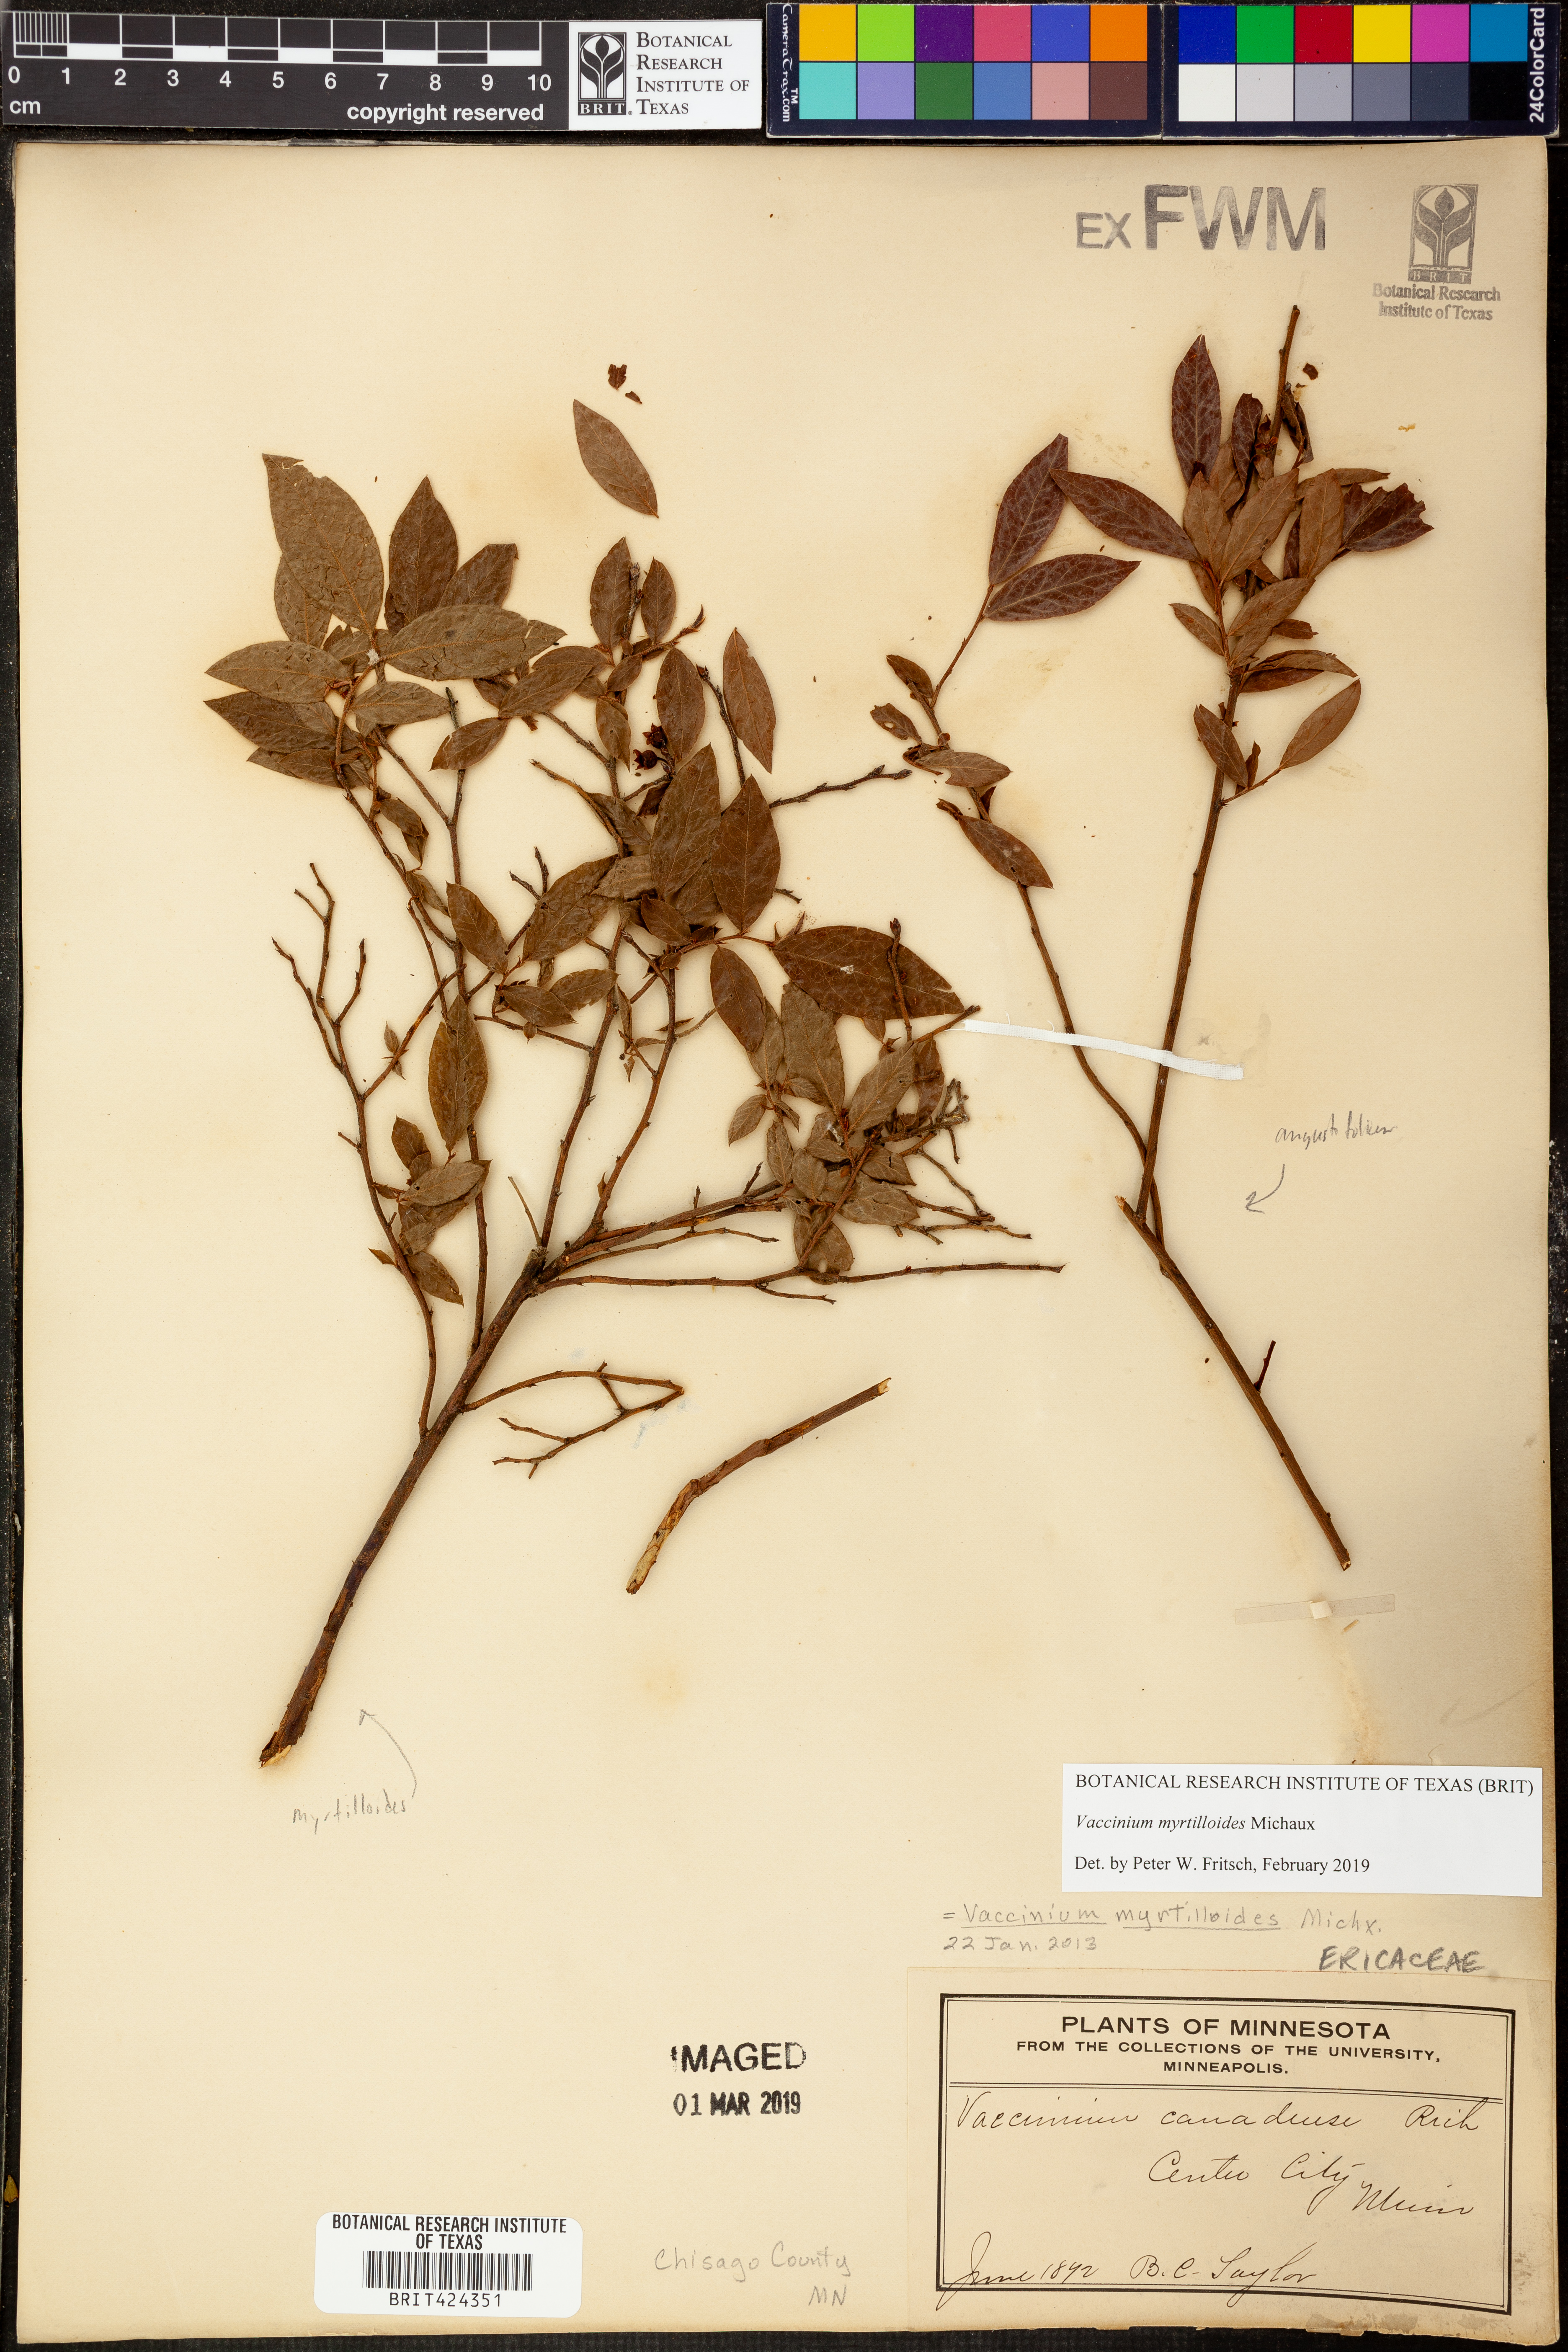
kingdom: Plantae
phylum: Tracheophyta
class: Magnoliopsida
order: Ericales
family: Ericaceae
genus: Vaccinium
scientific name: Vaccinium myrtilloides
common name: Canada blueberry
